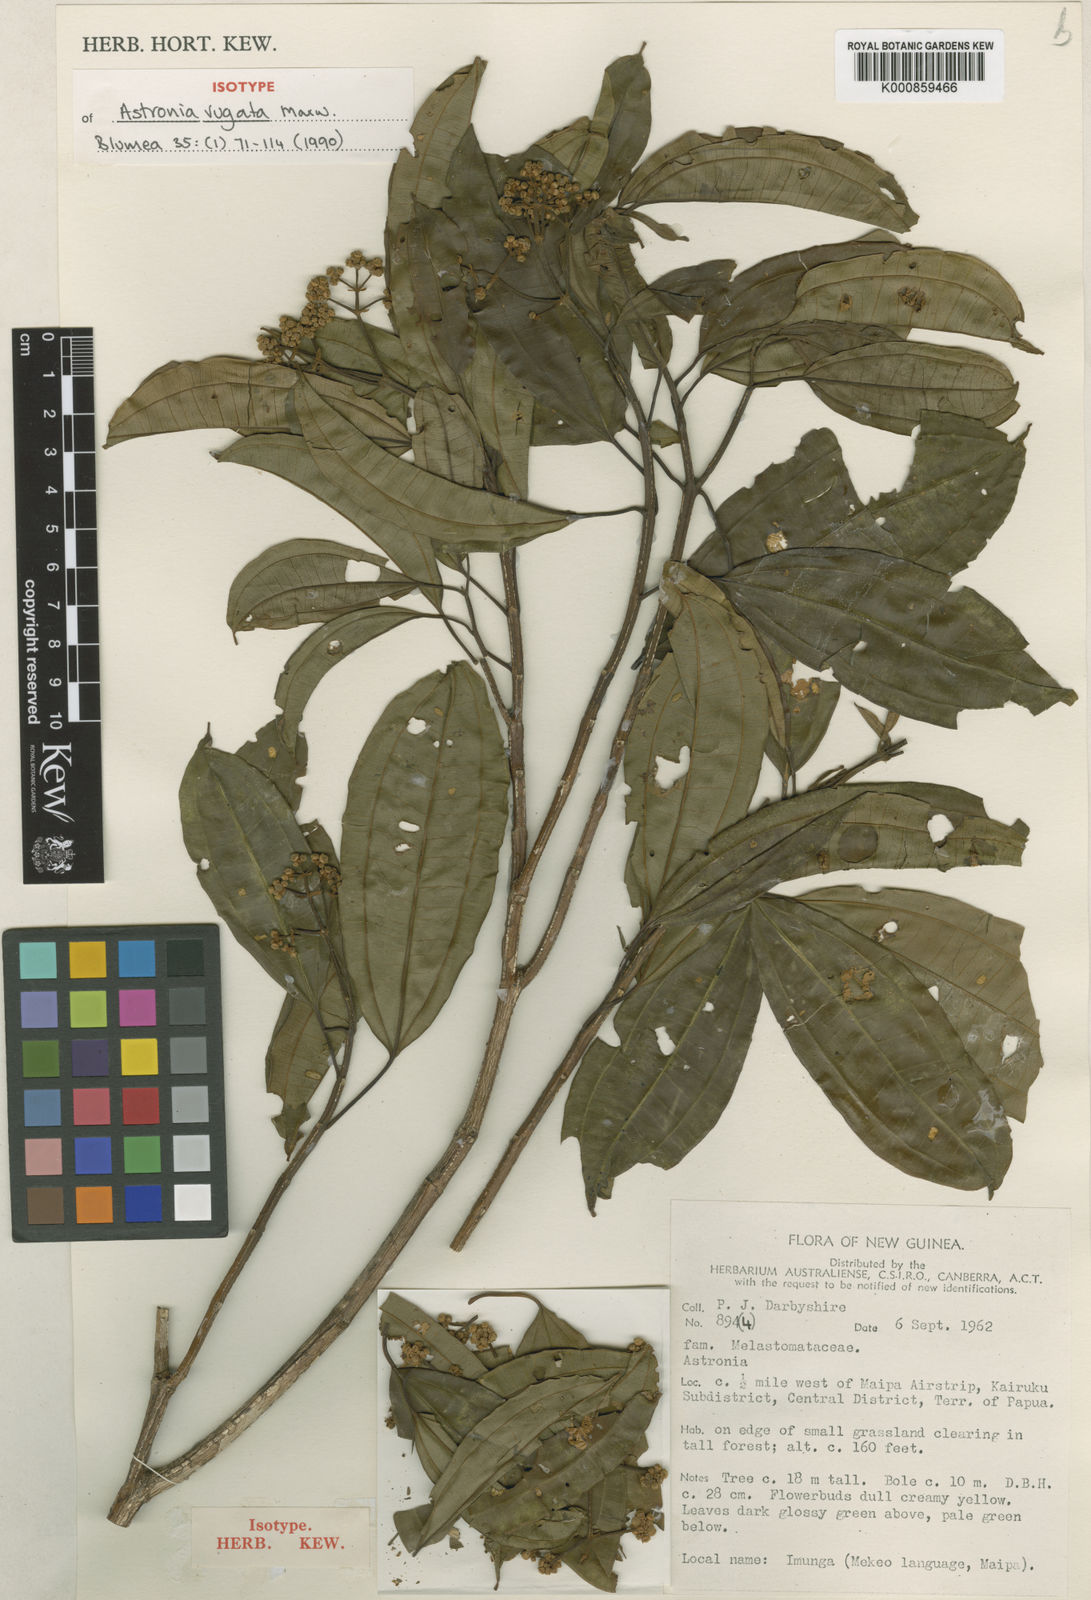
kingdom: Plantae
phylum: Tracheophyta
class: Magnoliopsida
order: Myrtales
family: Melastomataceae
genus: Astronia
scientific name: Astronia rugata
